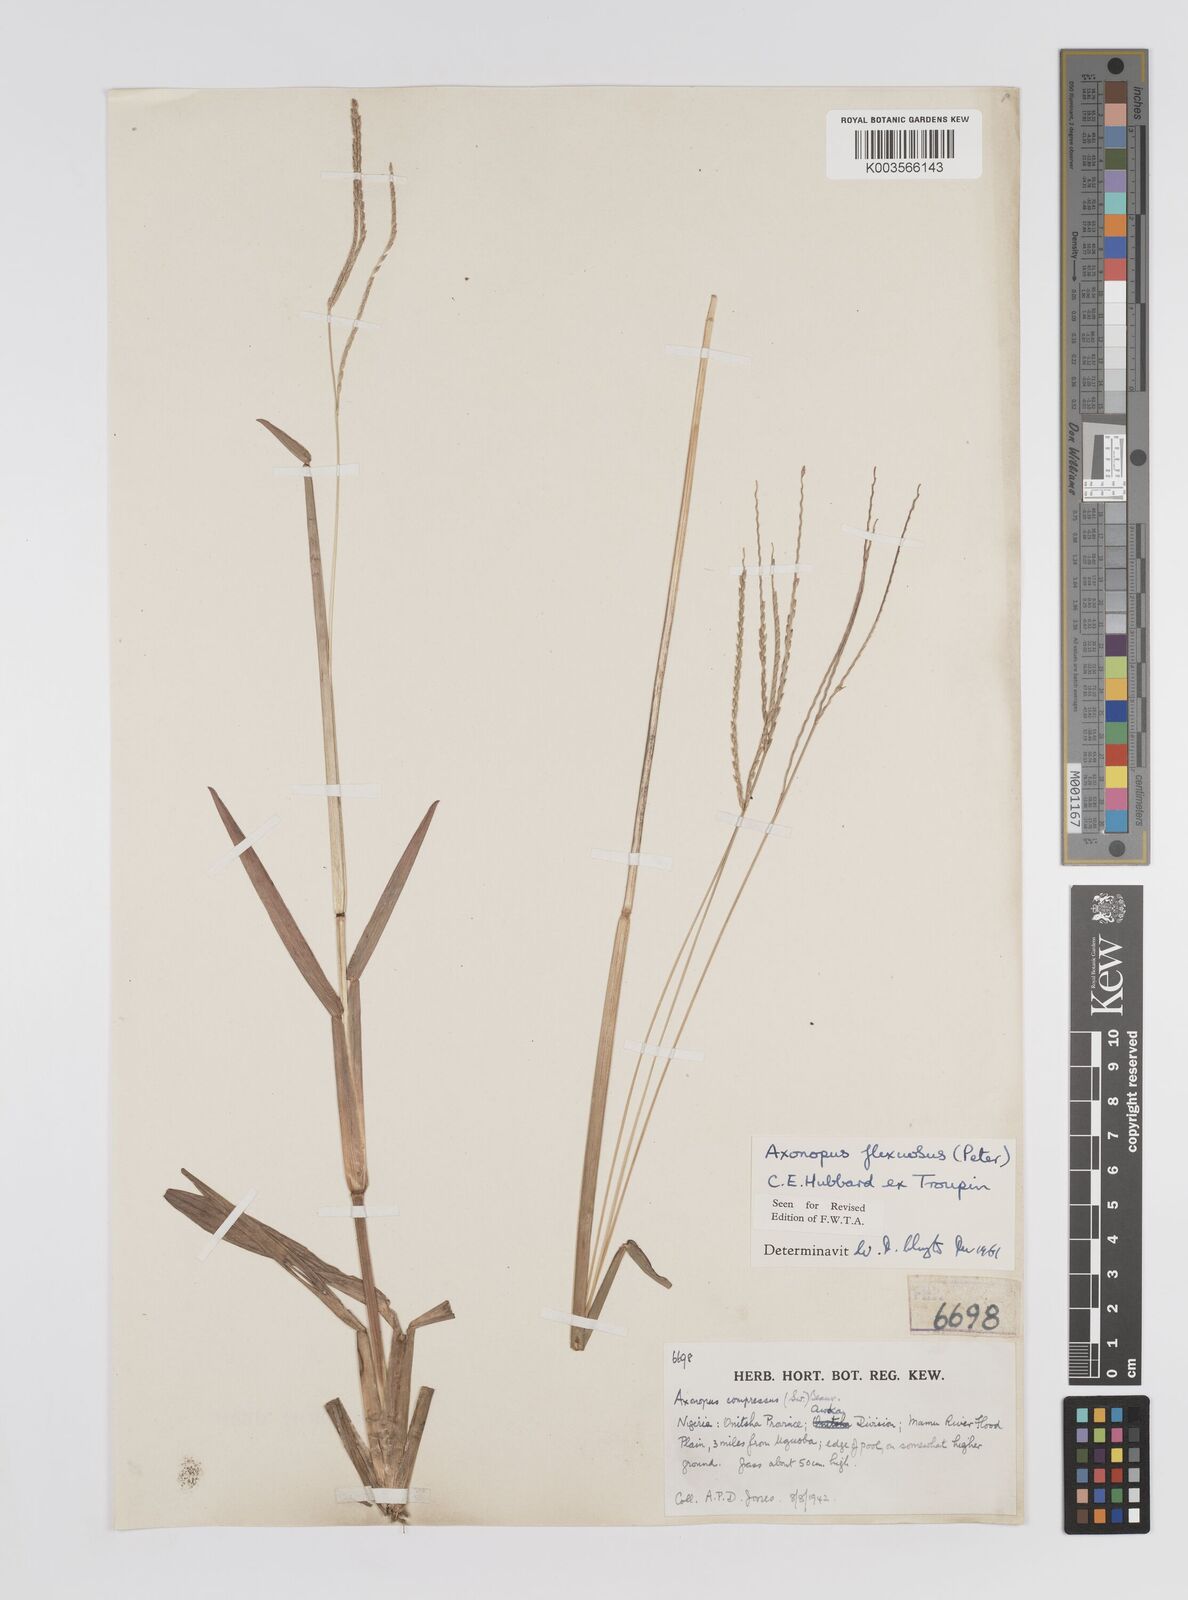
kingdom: Plantae
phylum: Tracheophyta
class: Liliopsida
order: Poales
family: Poaceae
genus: Axonopus
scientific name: Axonopus flexuosus
